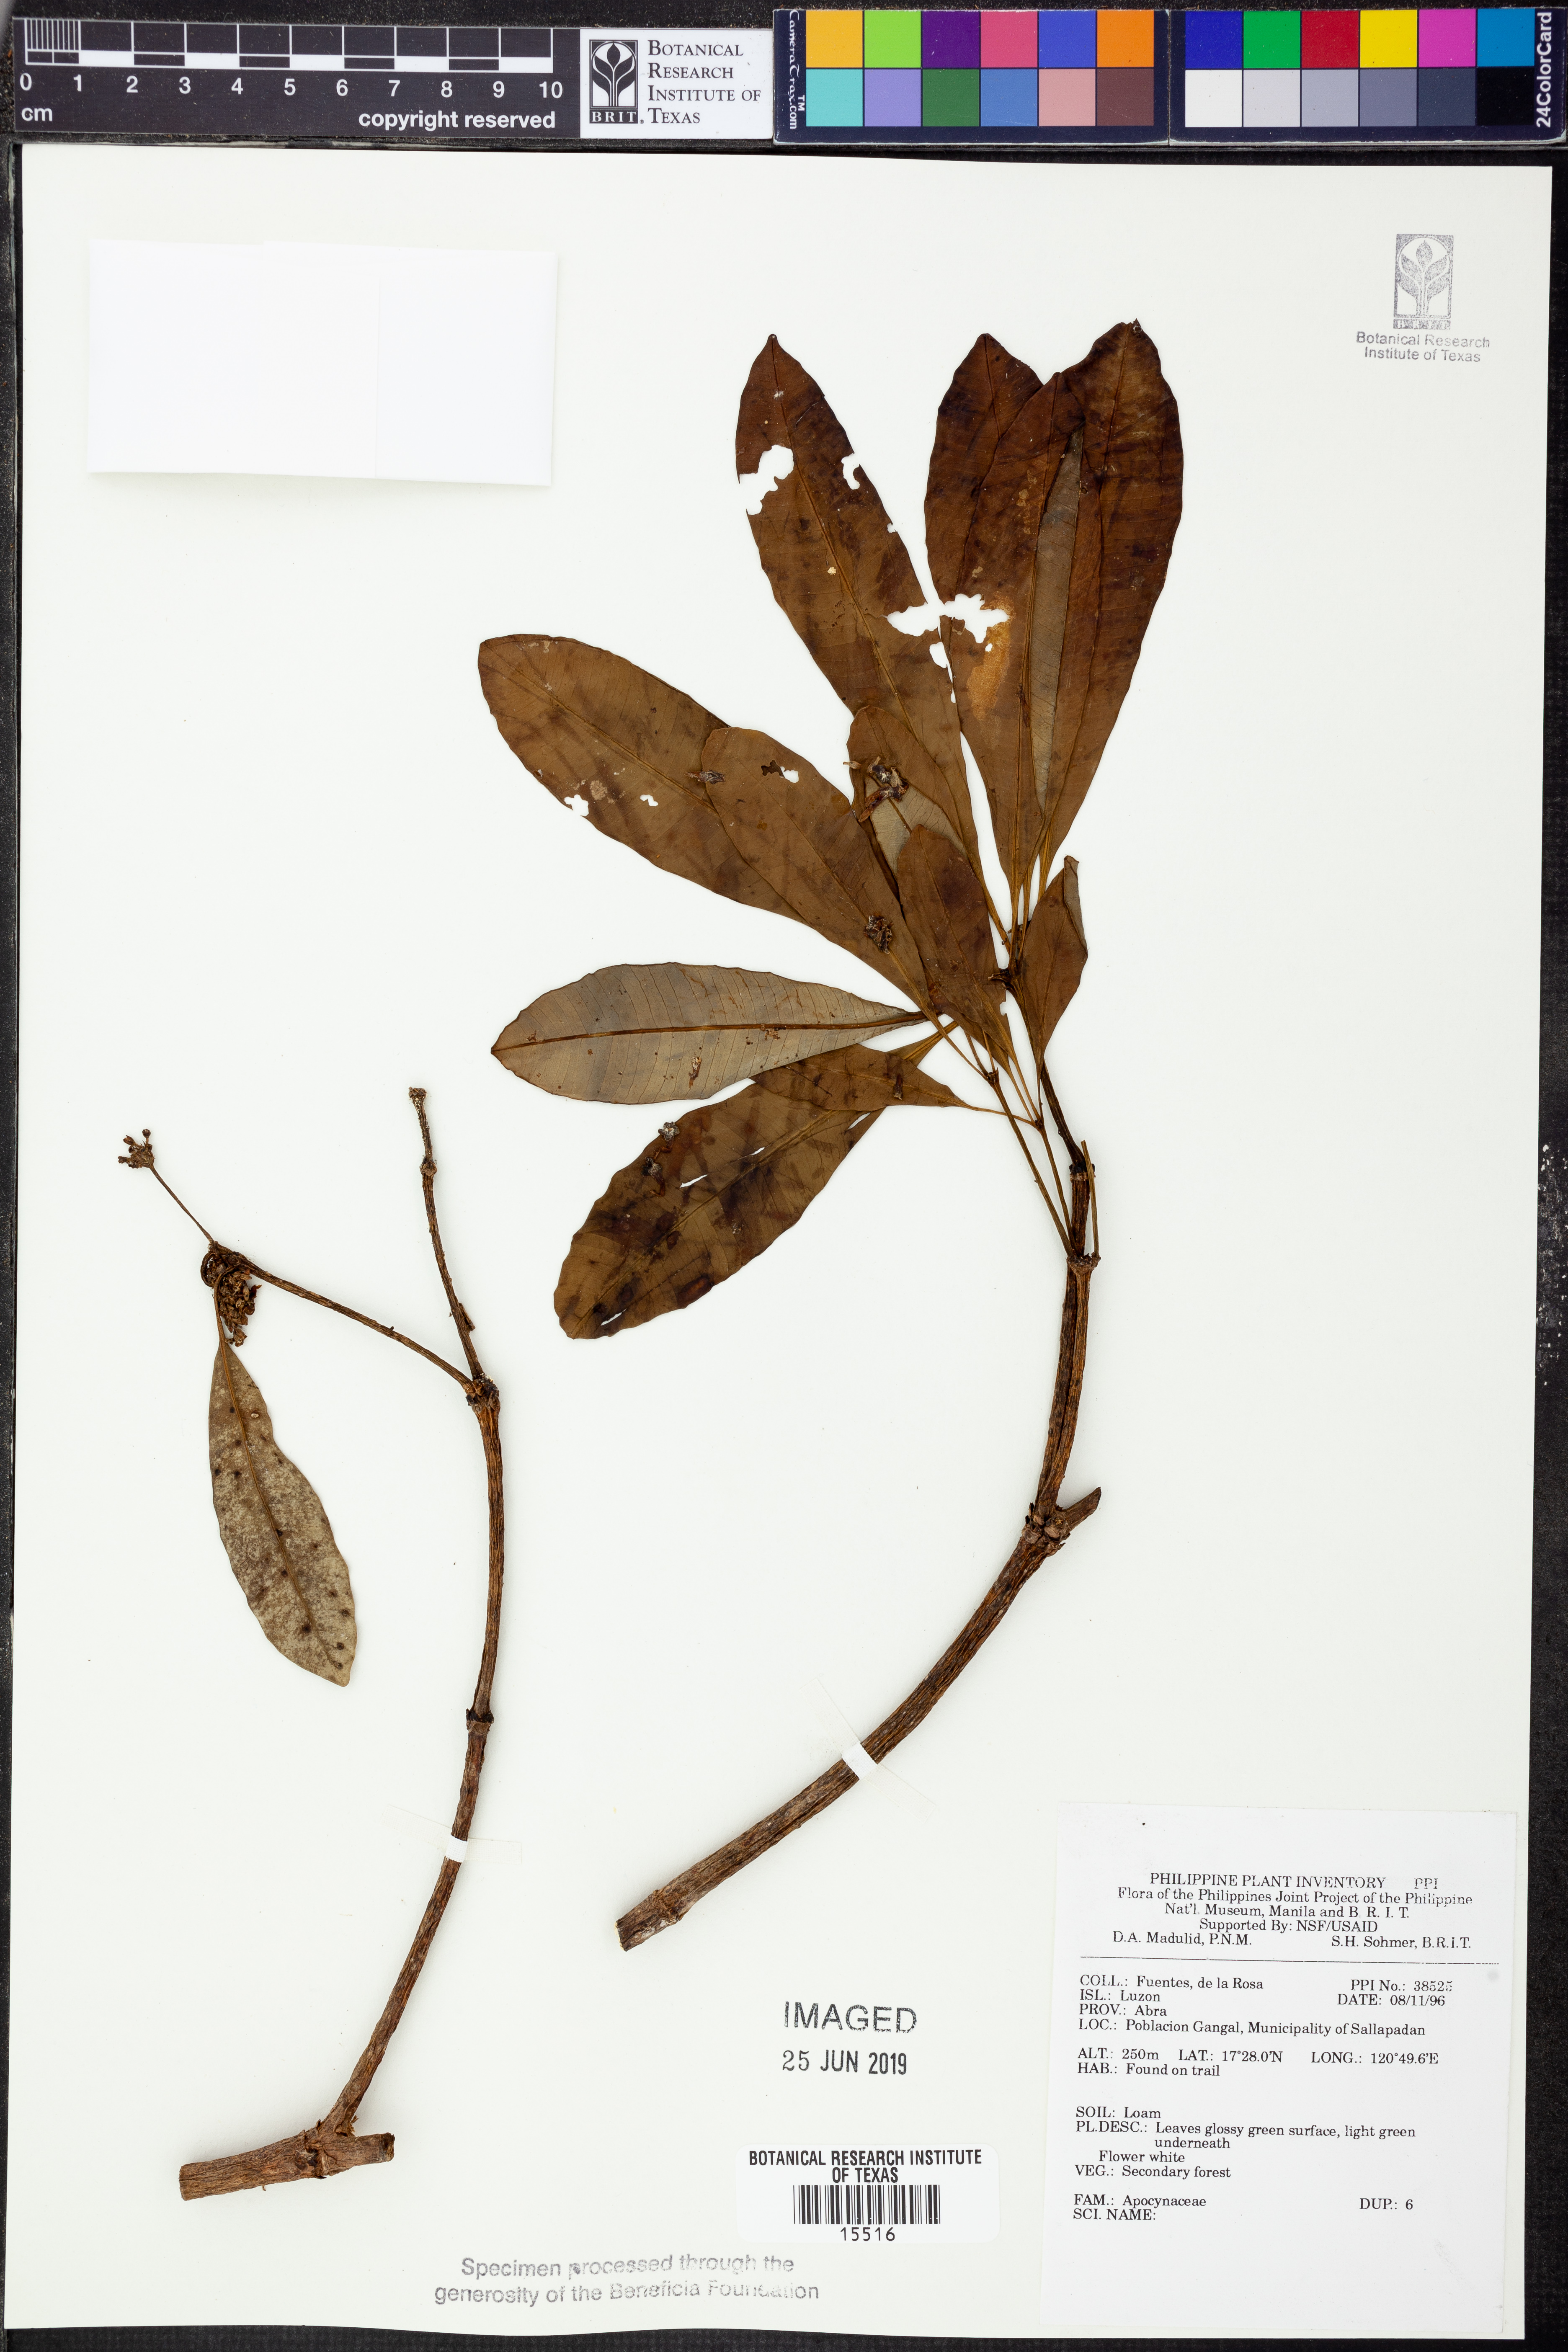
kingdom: Plantae
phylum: Tracheophyta
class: Magnoliopsida
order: Gentianales
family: Apocynaceae
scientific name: Apocynaceae
